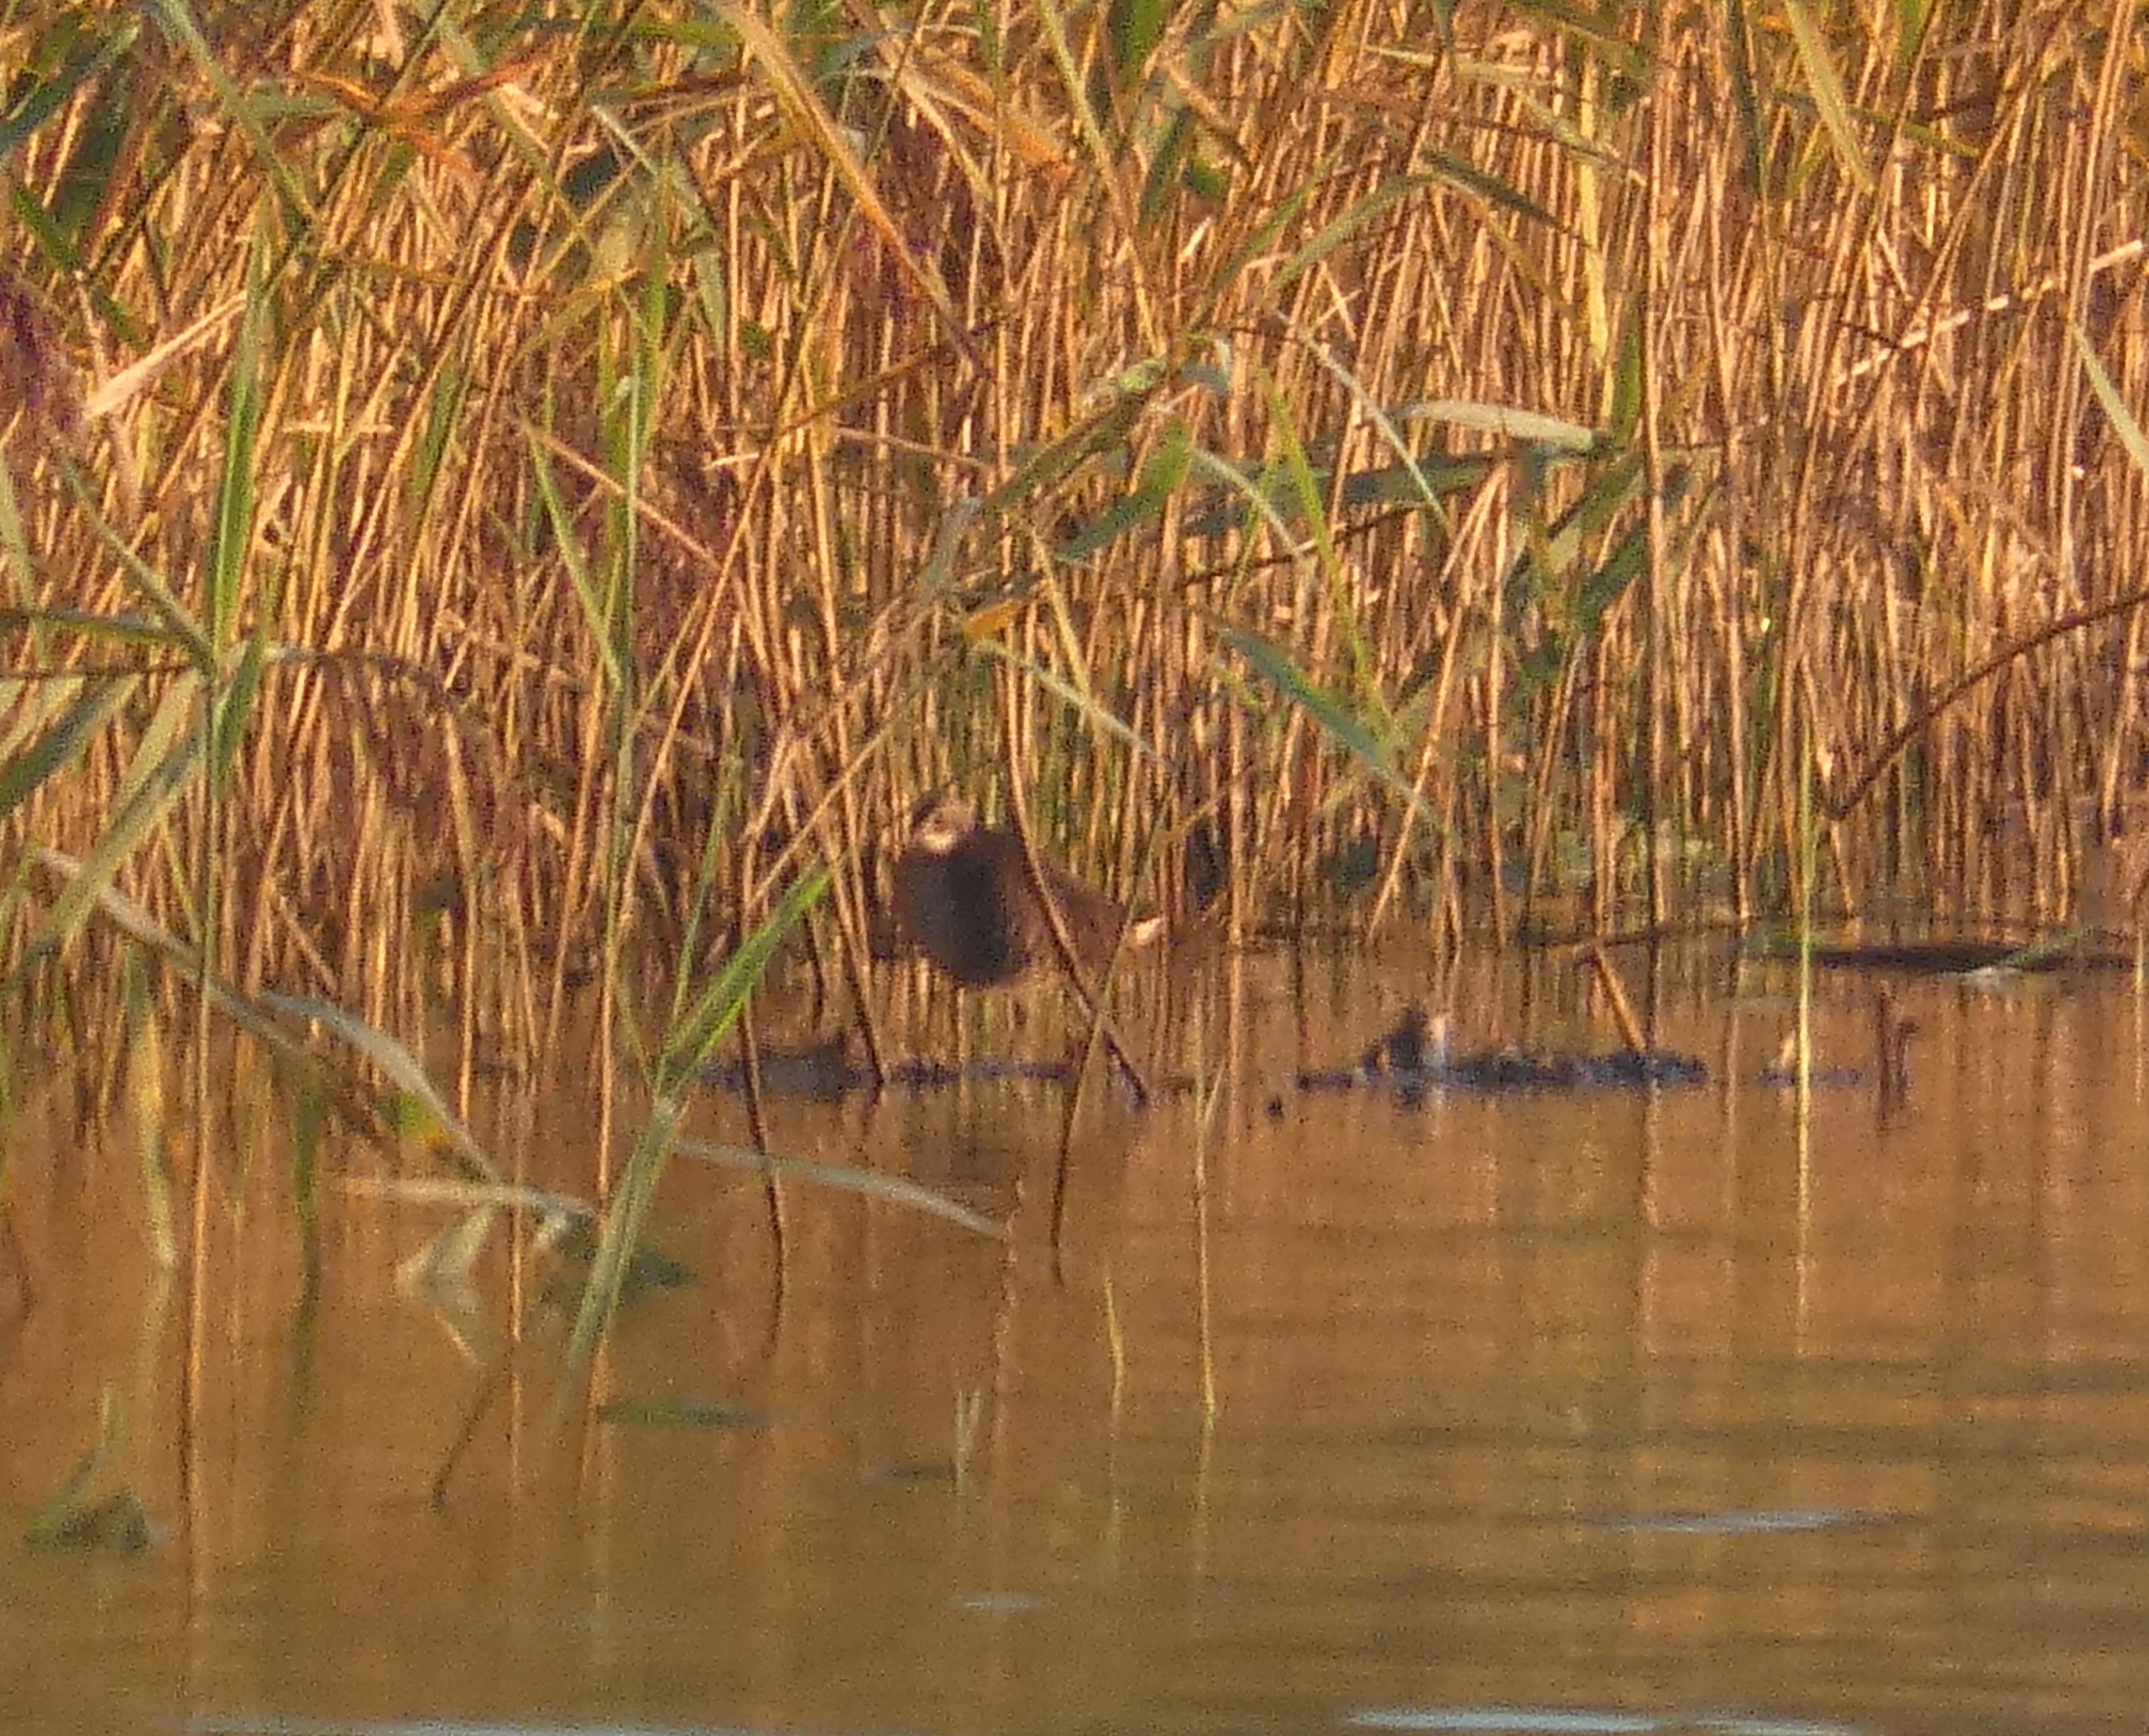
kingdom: Animalia
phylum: Chordata
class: Aves
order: Gruiformes
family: Rallidae
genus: Rallus
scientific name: Rallus aquaticus
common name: Vandrikse
